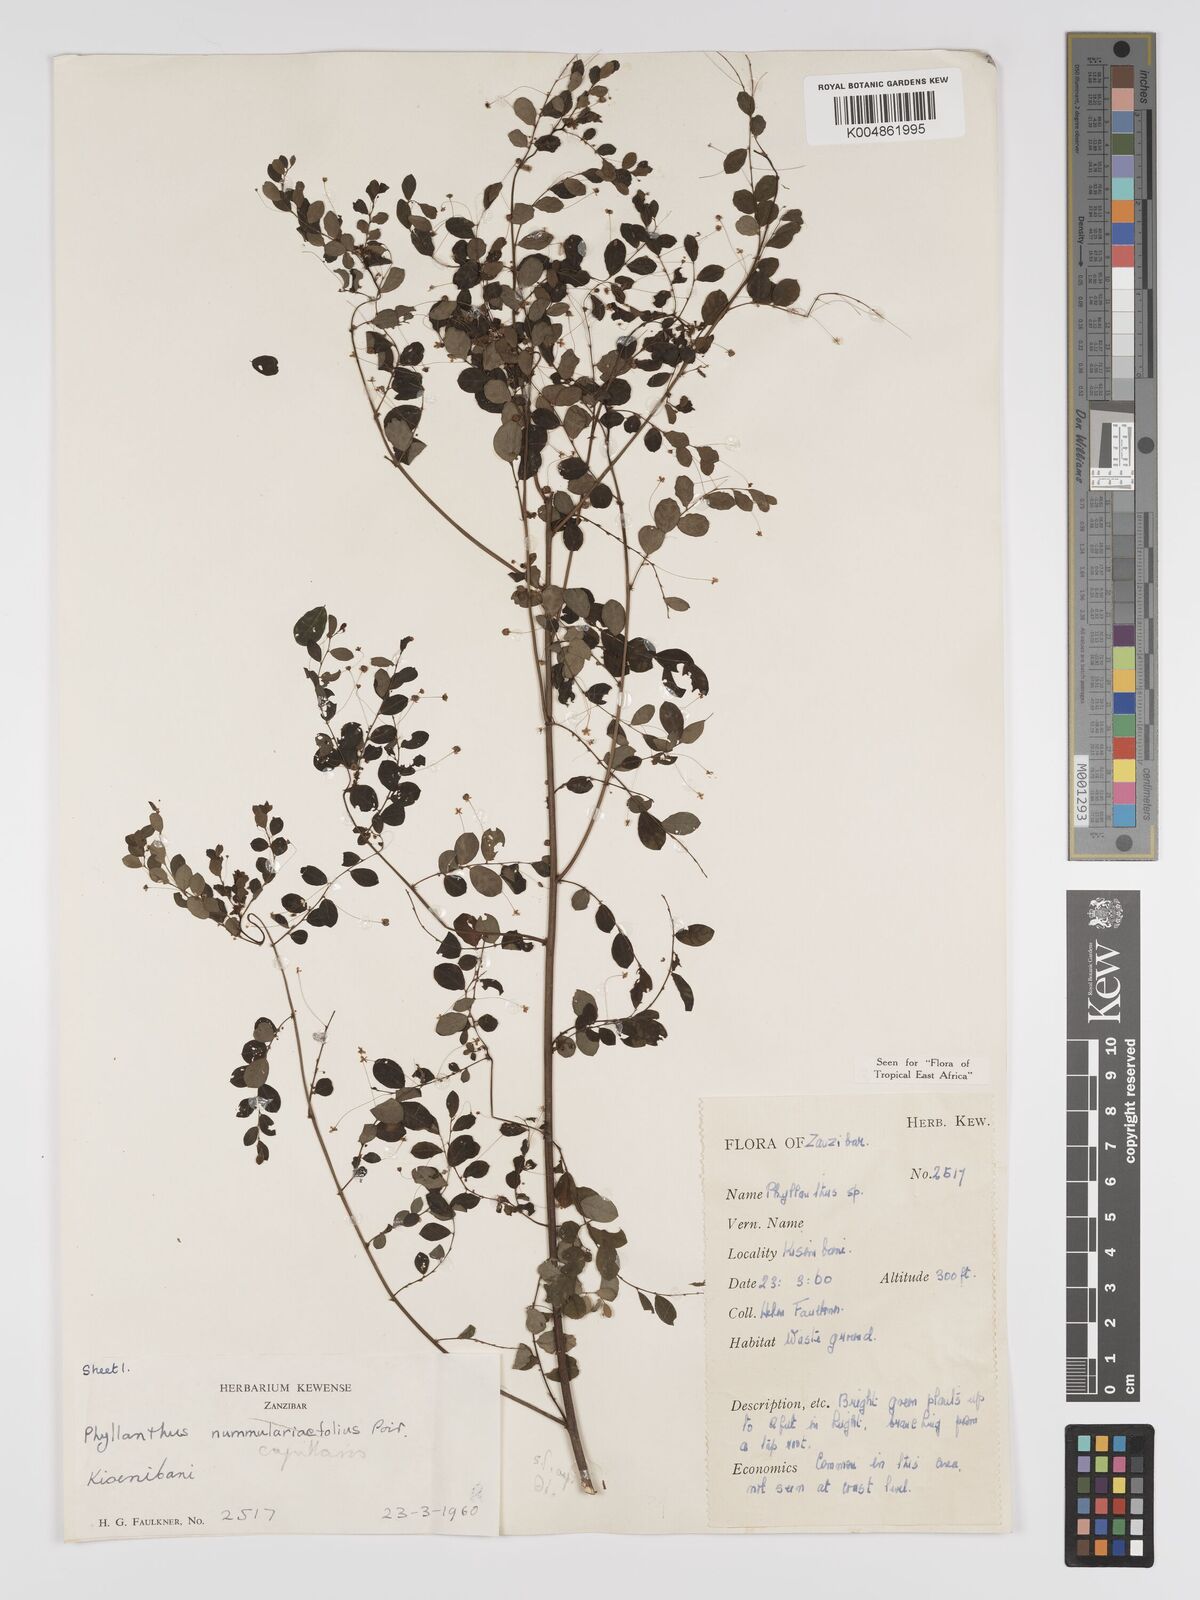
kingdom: Plantae
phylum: Tracheophyta
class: Magnoliopsida
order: Malpighiales
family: Phyllanthaceae
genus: Phyllanthus
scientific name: Phyllanthus nummulariifolius
